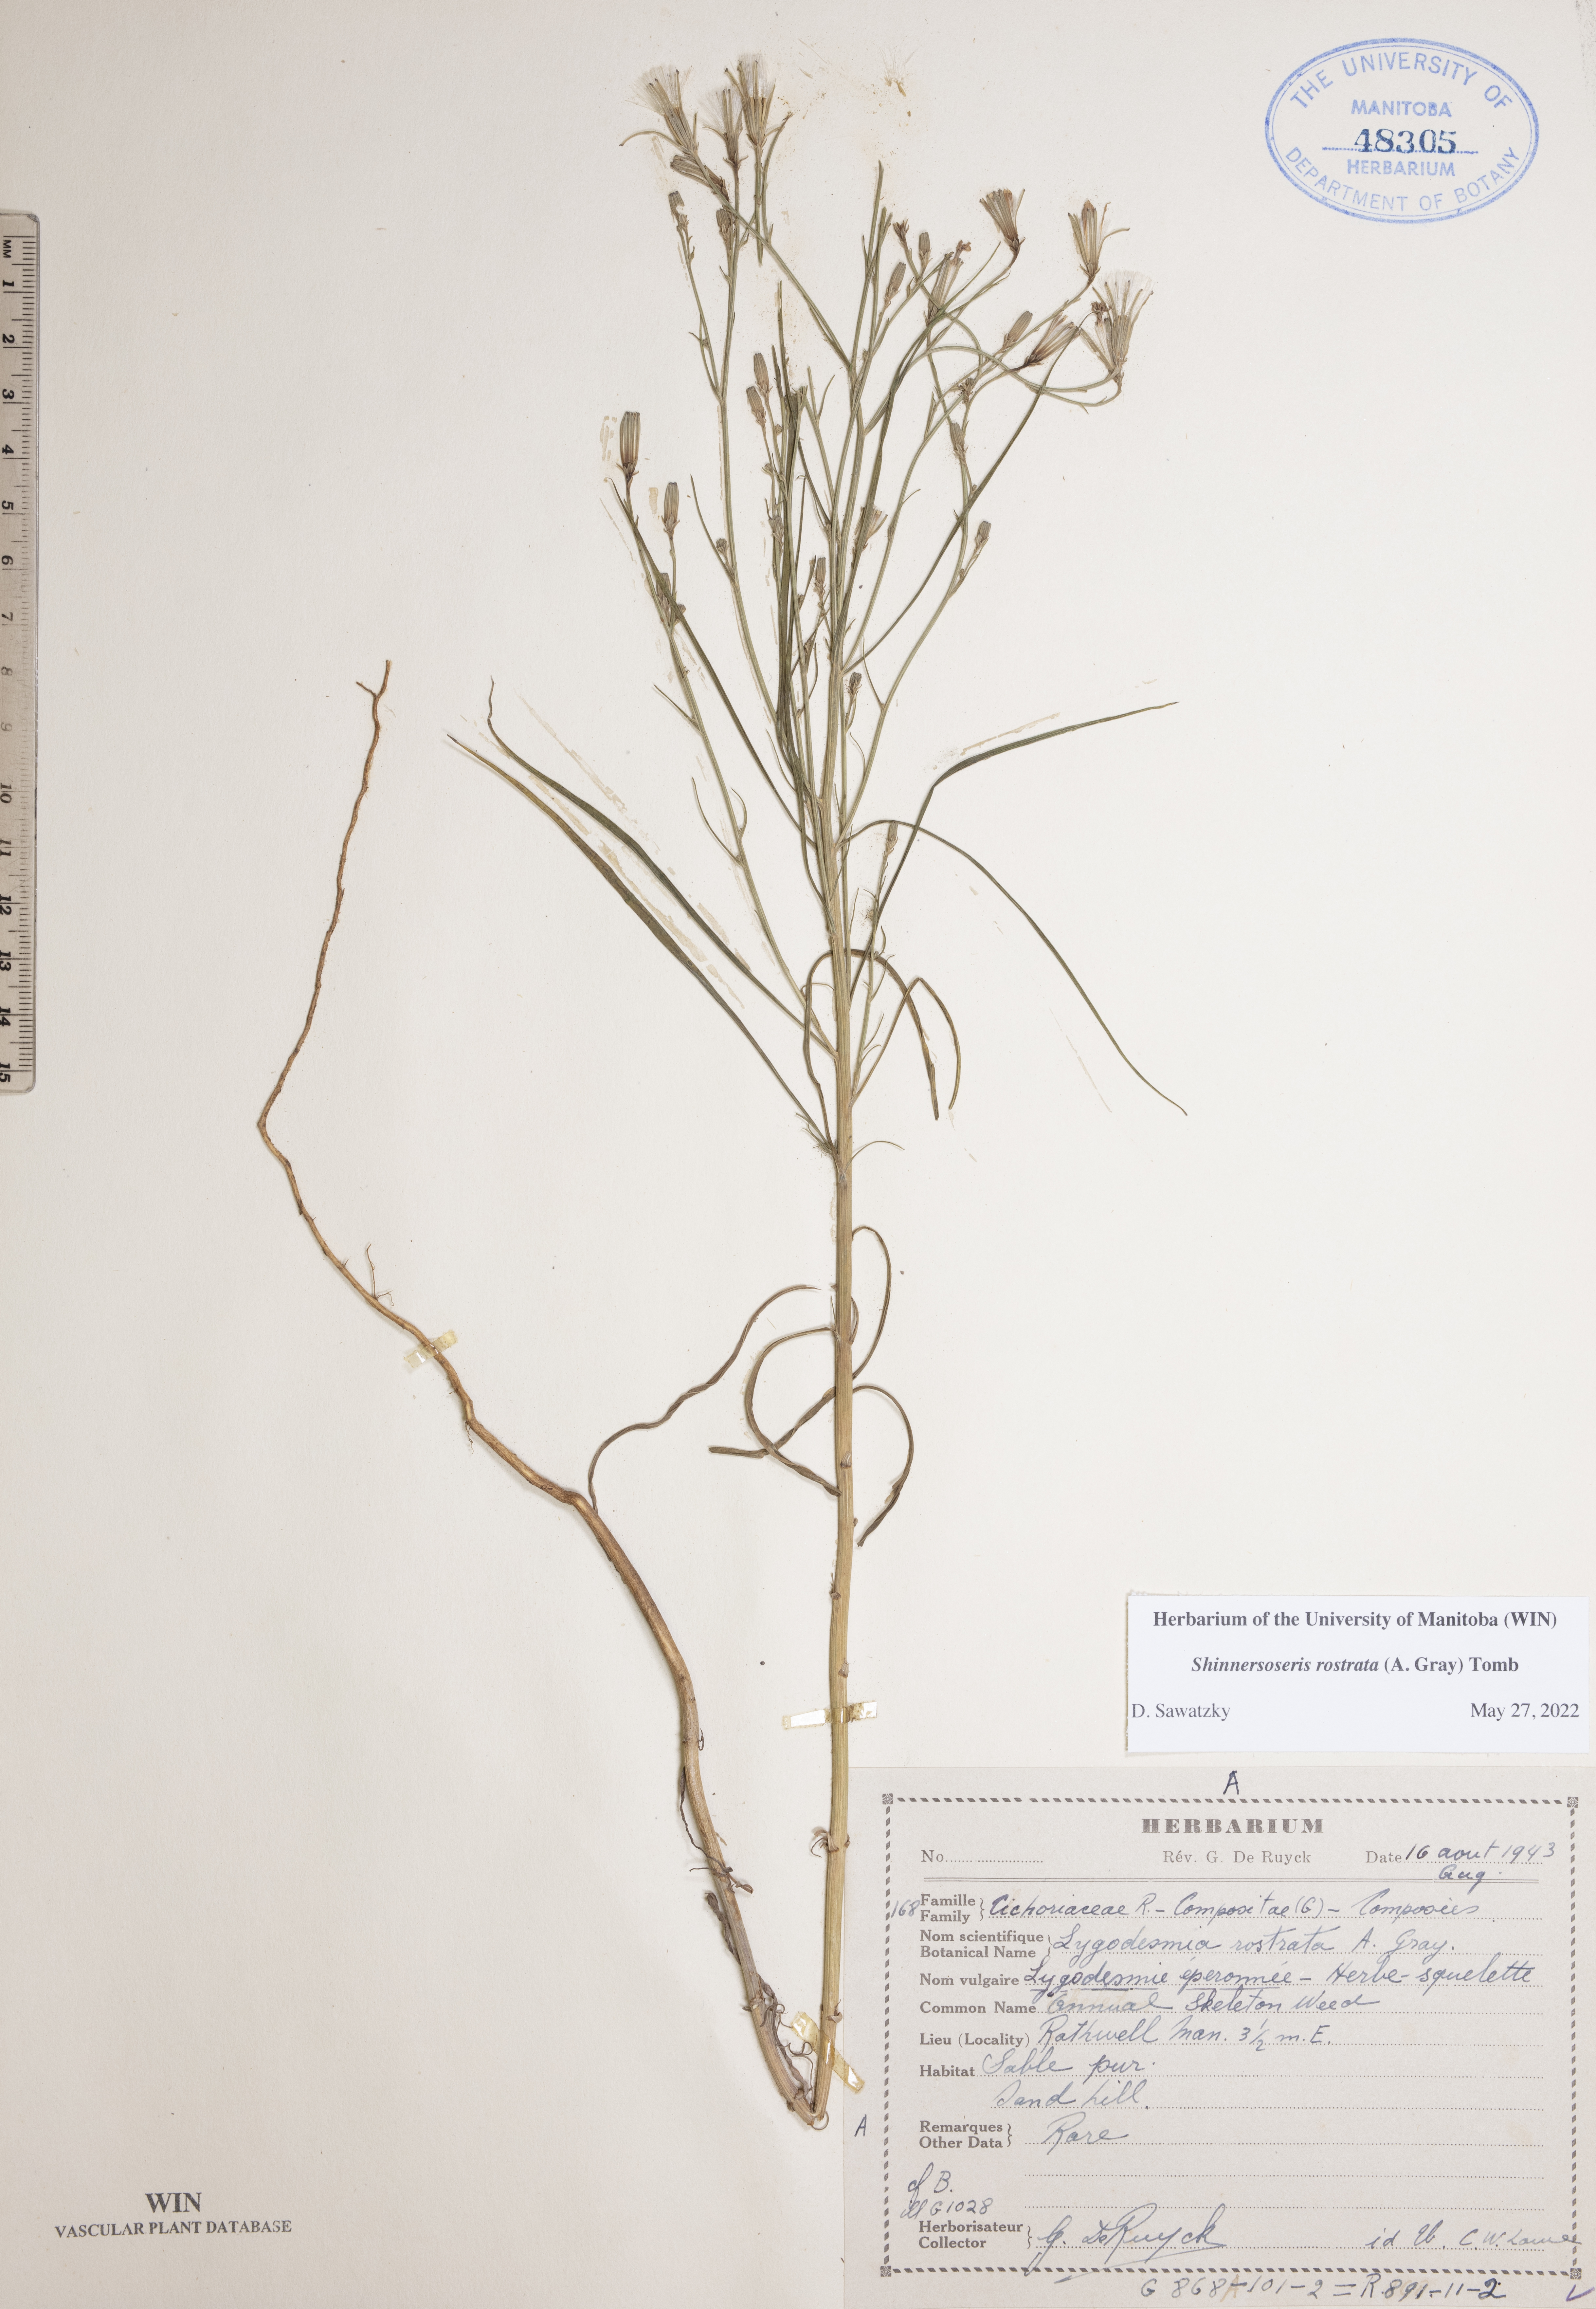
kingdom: Plantae
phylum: Tracheophyta
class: Magnoliopsida
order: Asterales
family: Asteraceae
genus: Shinnersoseris
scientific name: Shinnersoseris rostrata
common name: Annual skeleton-weed
